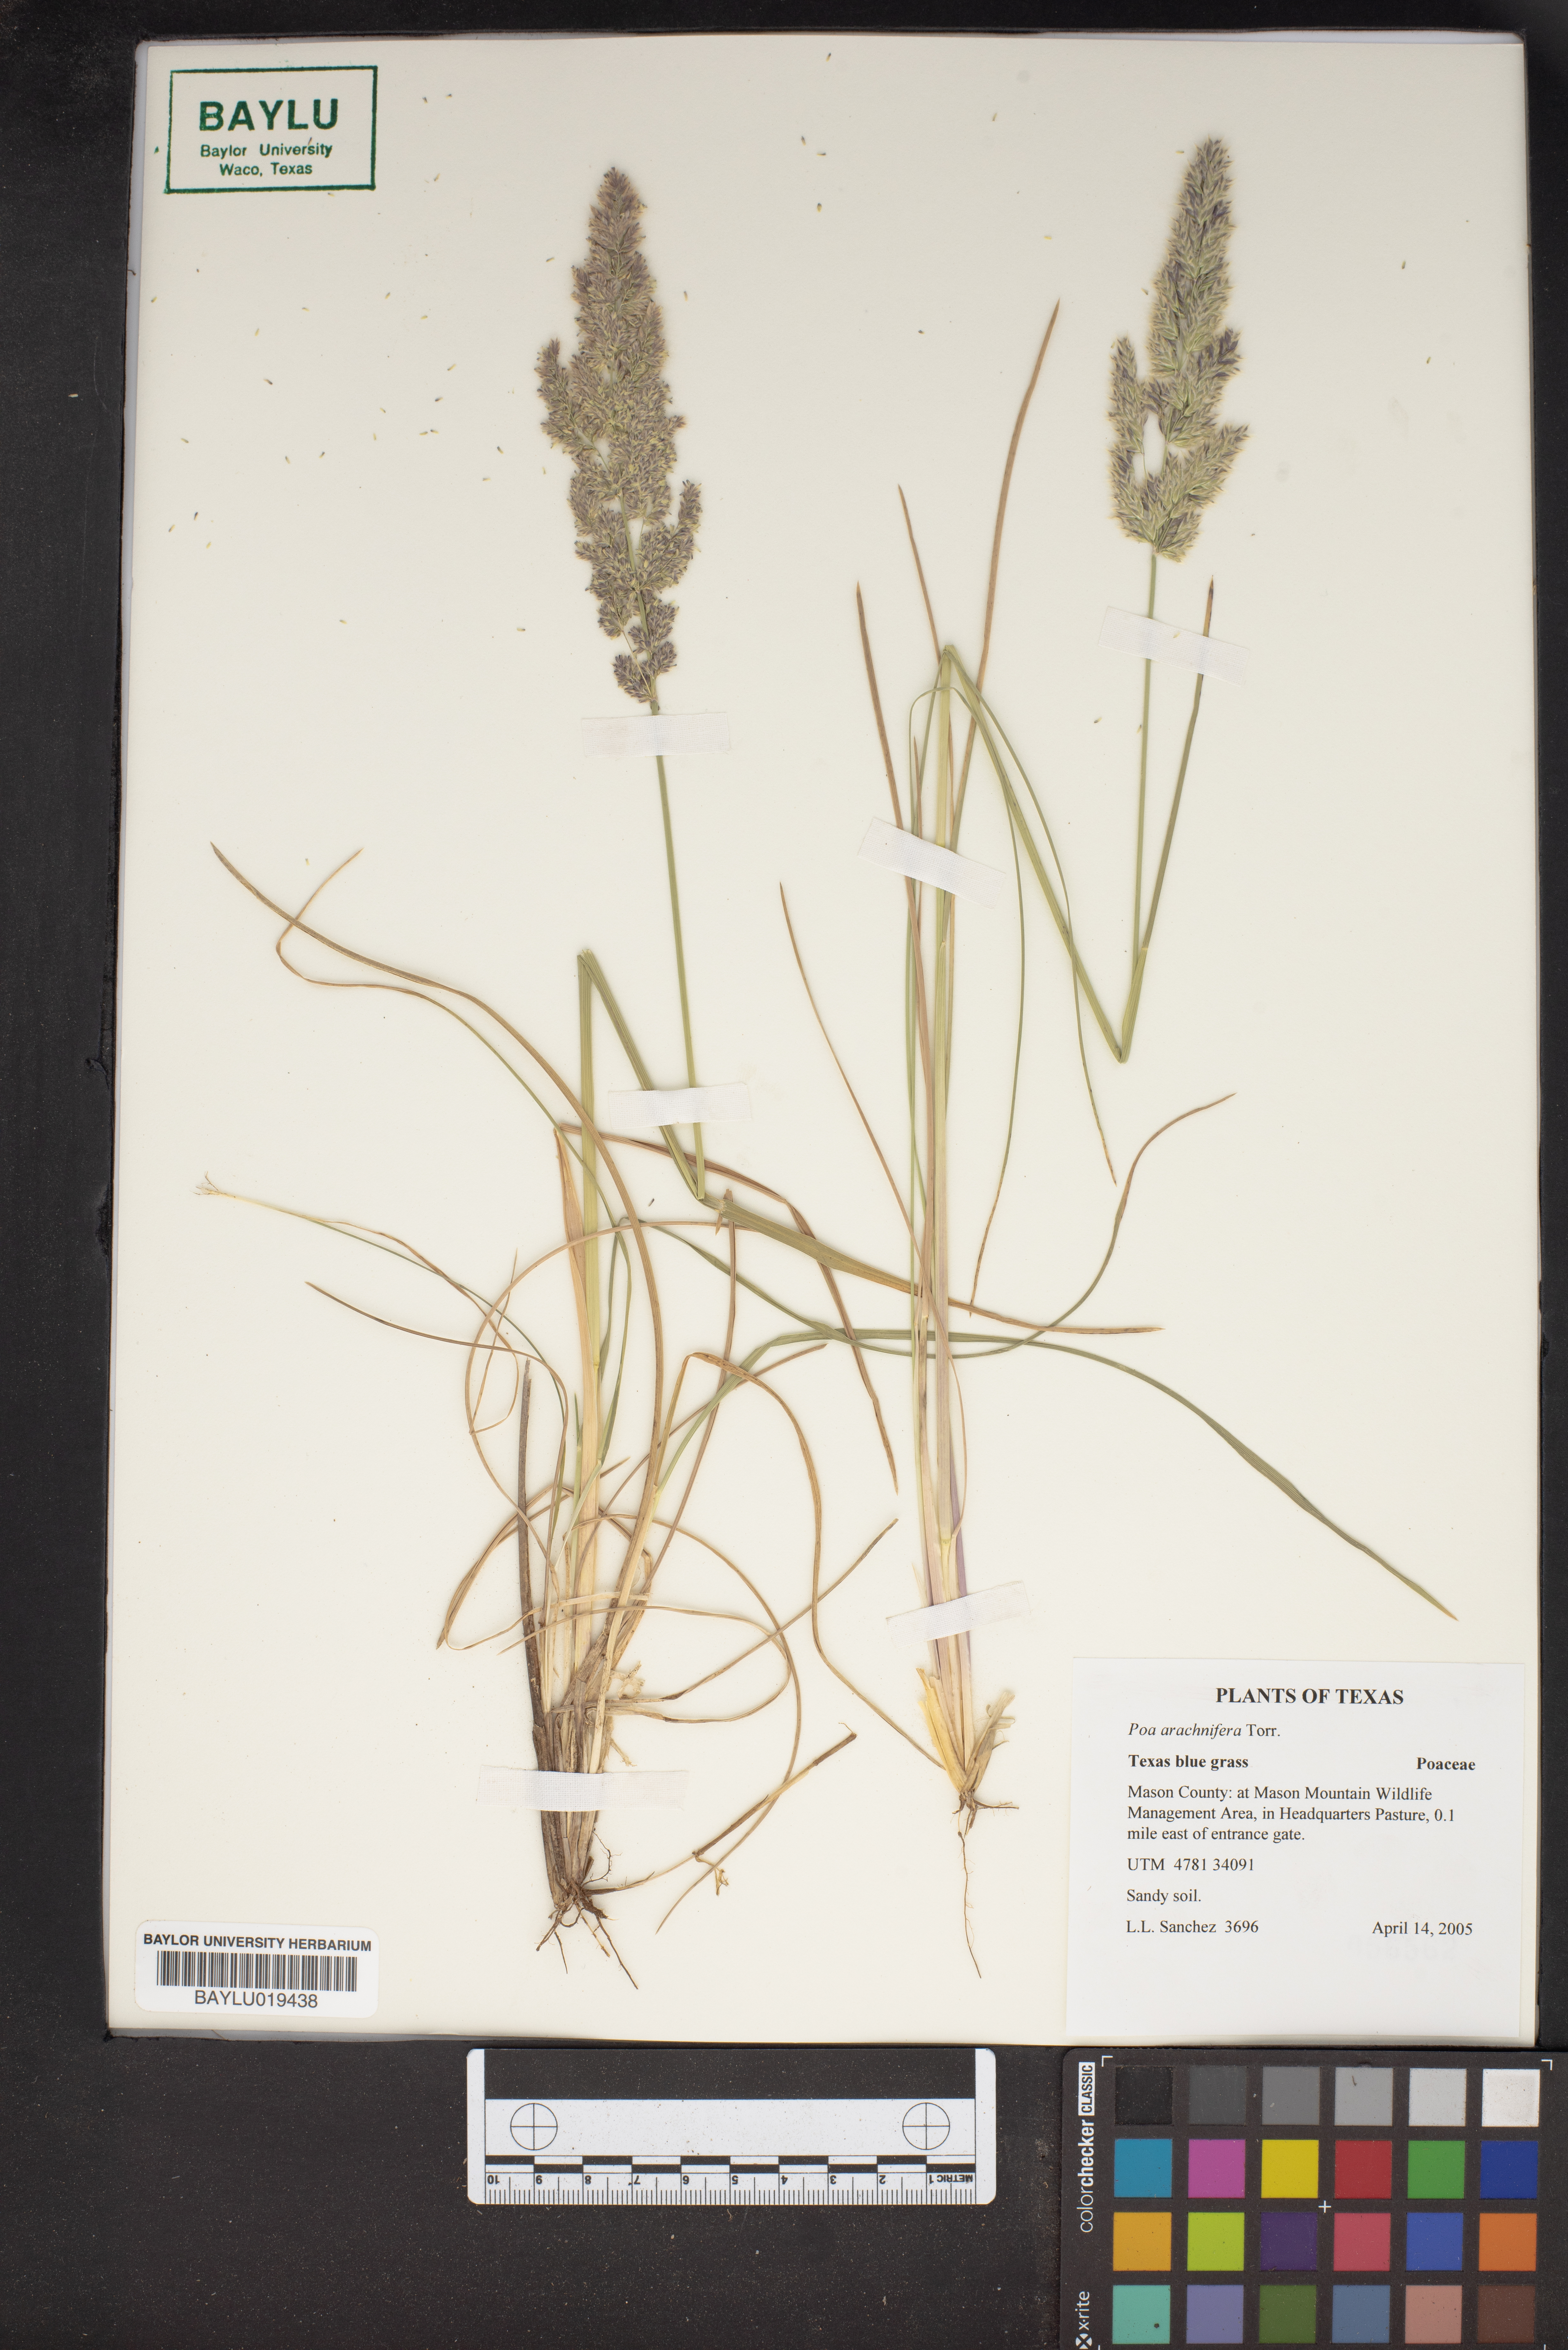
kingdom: Plantae
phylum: Tracheophyta
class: Liliopsida
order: Poales
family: Poaceae
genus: Poa
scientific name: Poa arachnifera
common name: Texas bluegrass
